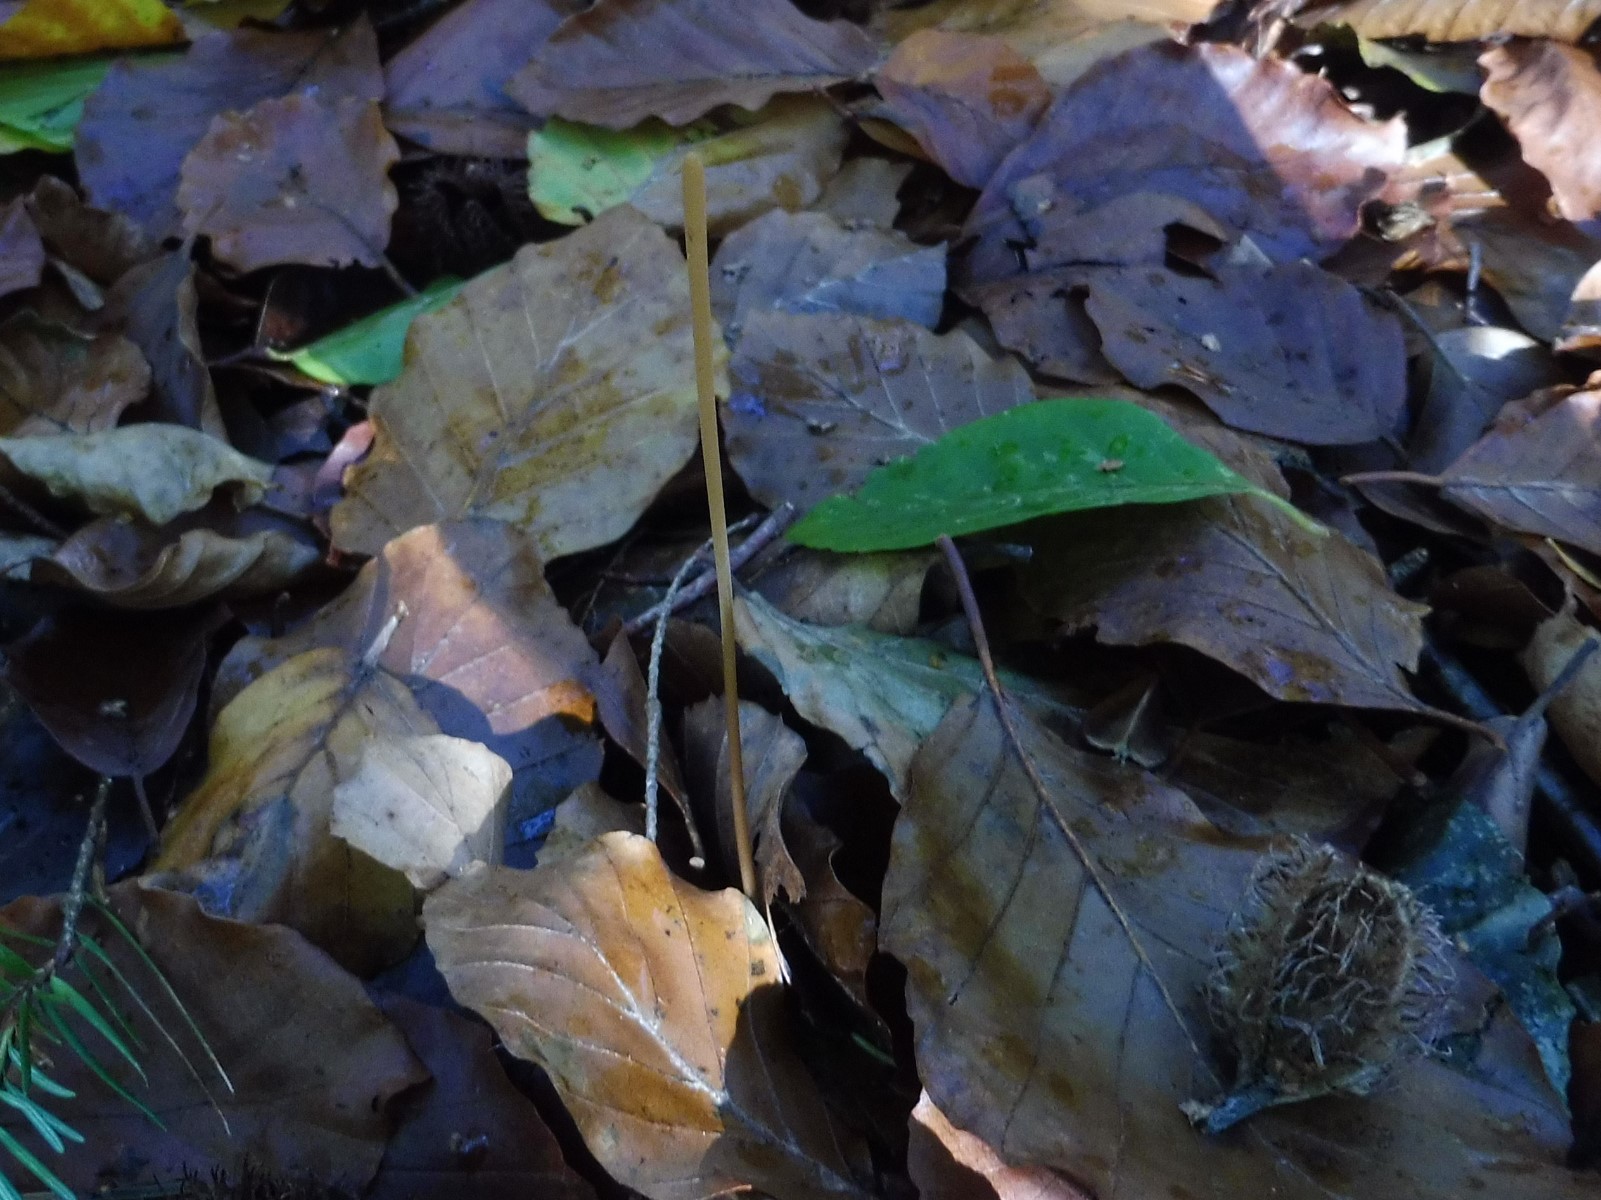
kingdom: Fungi
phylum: Basidiomycota
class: Agaricomycetes
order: Agaricales
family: Typhulaceae
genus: Typhula
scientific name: Typhula fistulosa
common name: pibet rørkølle
